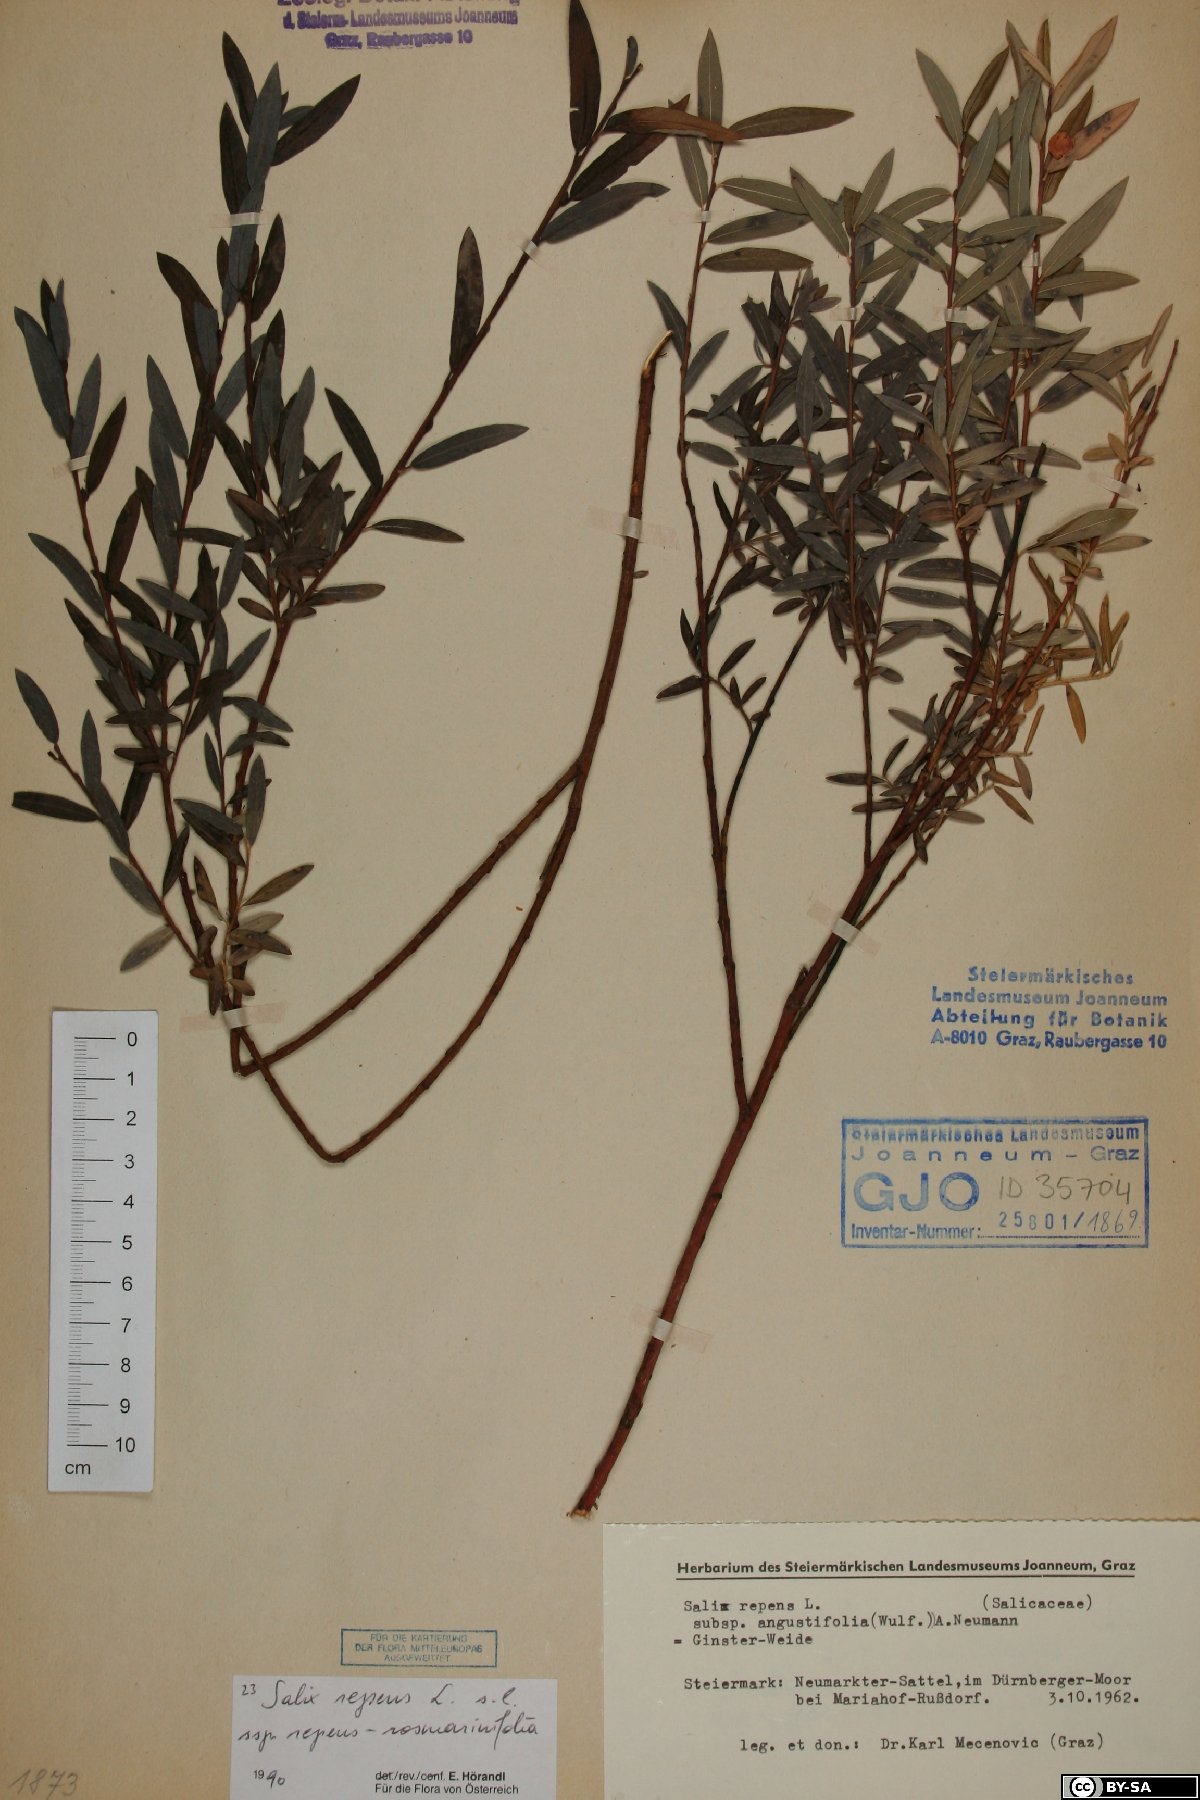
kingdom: Plantae
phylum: Tracheophyta
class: Magnoliopsida
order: Malpighiales
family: Salicaceae
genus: Salix
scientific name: Salix repens
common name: Creeping willow
